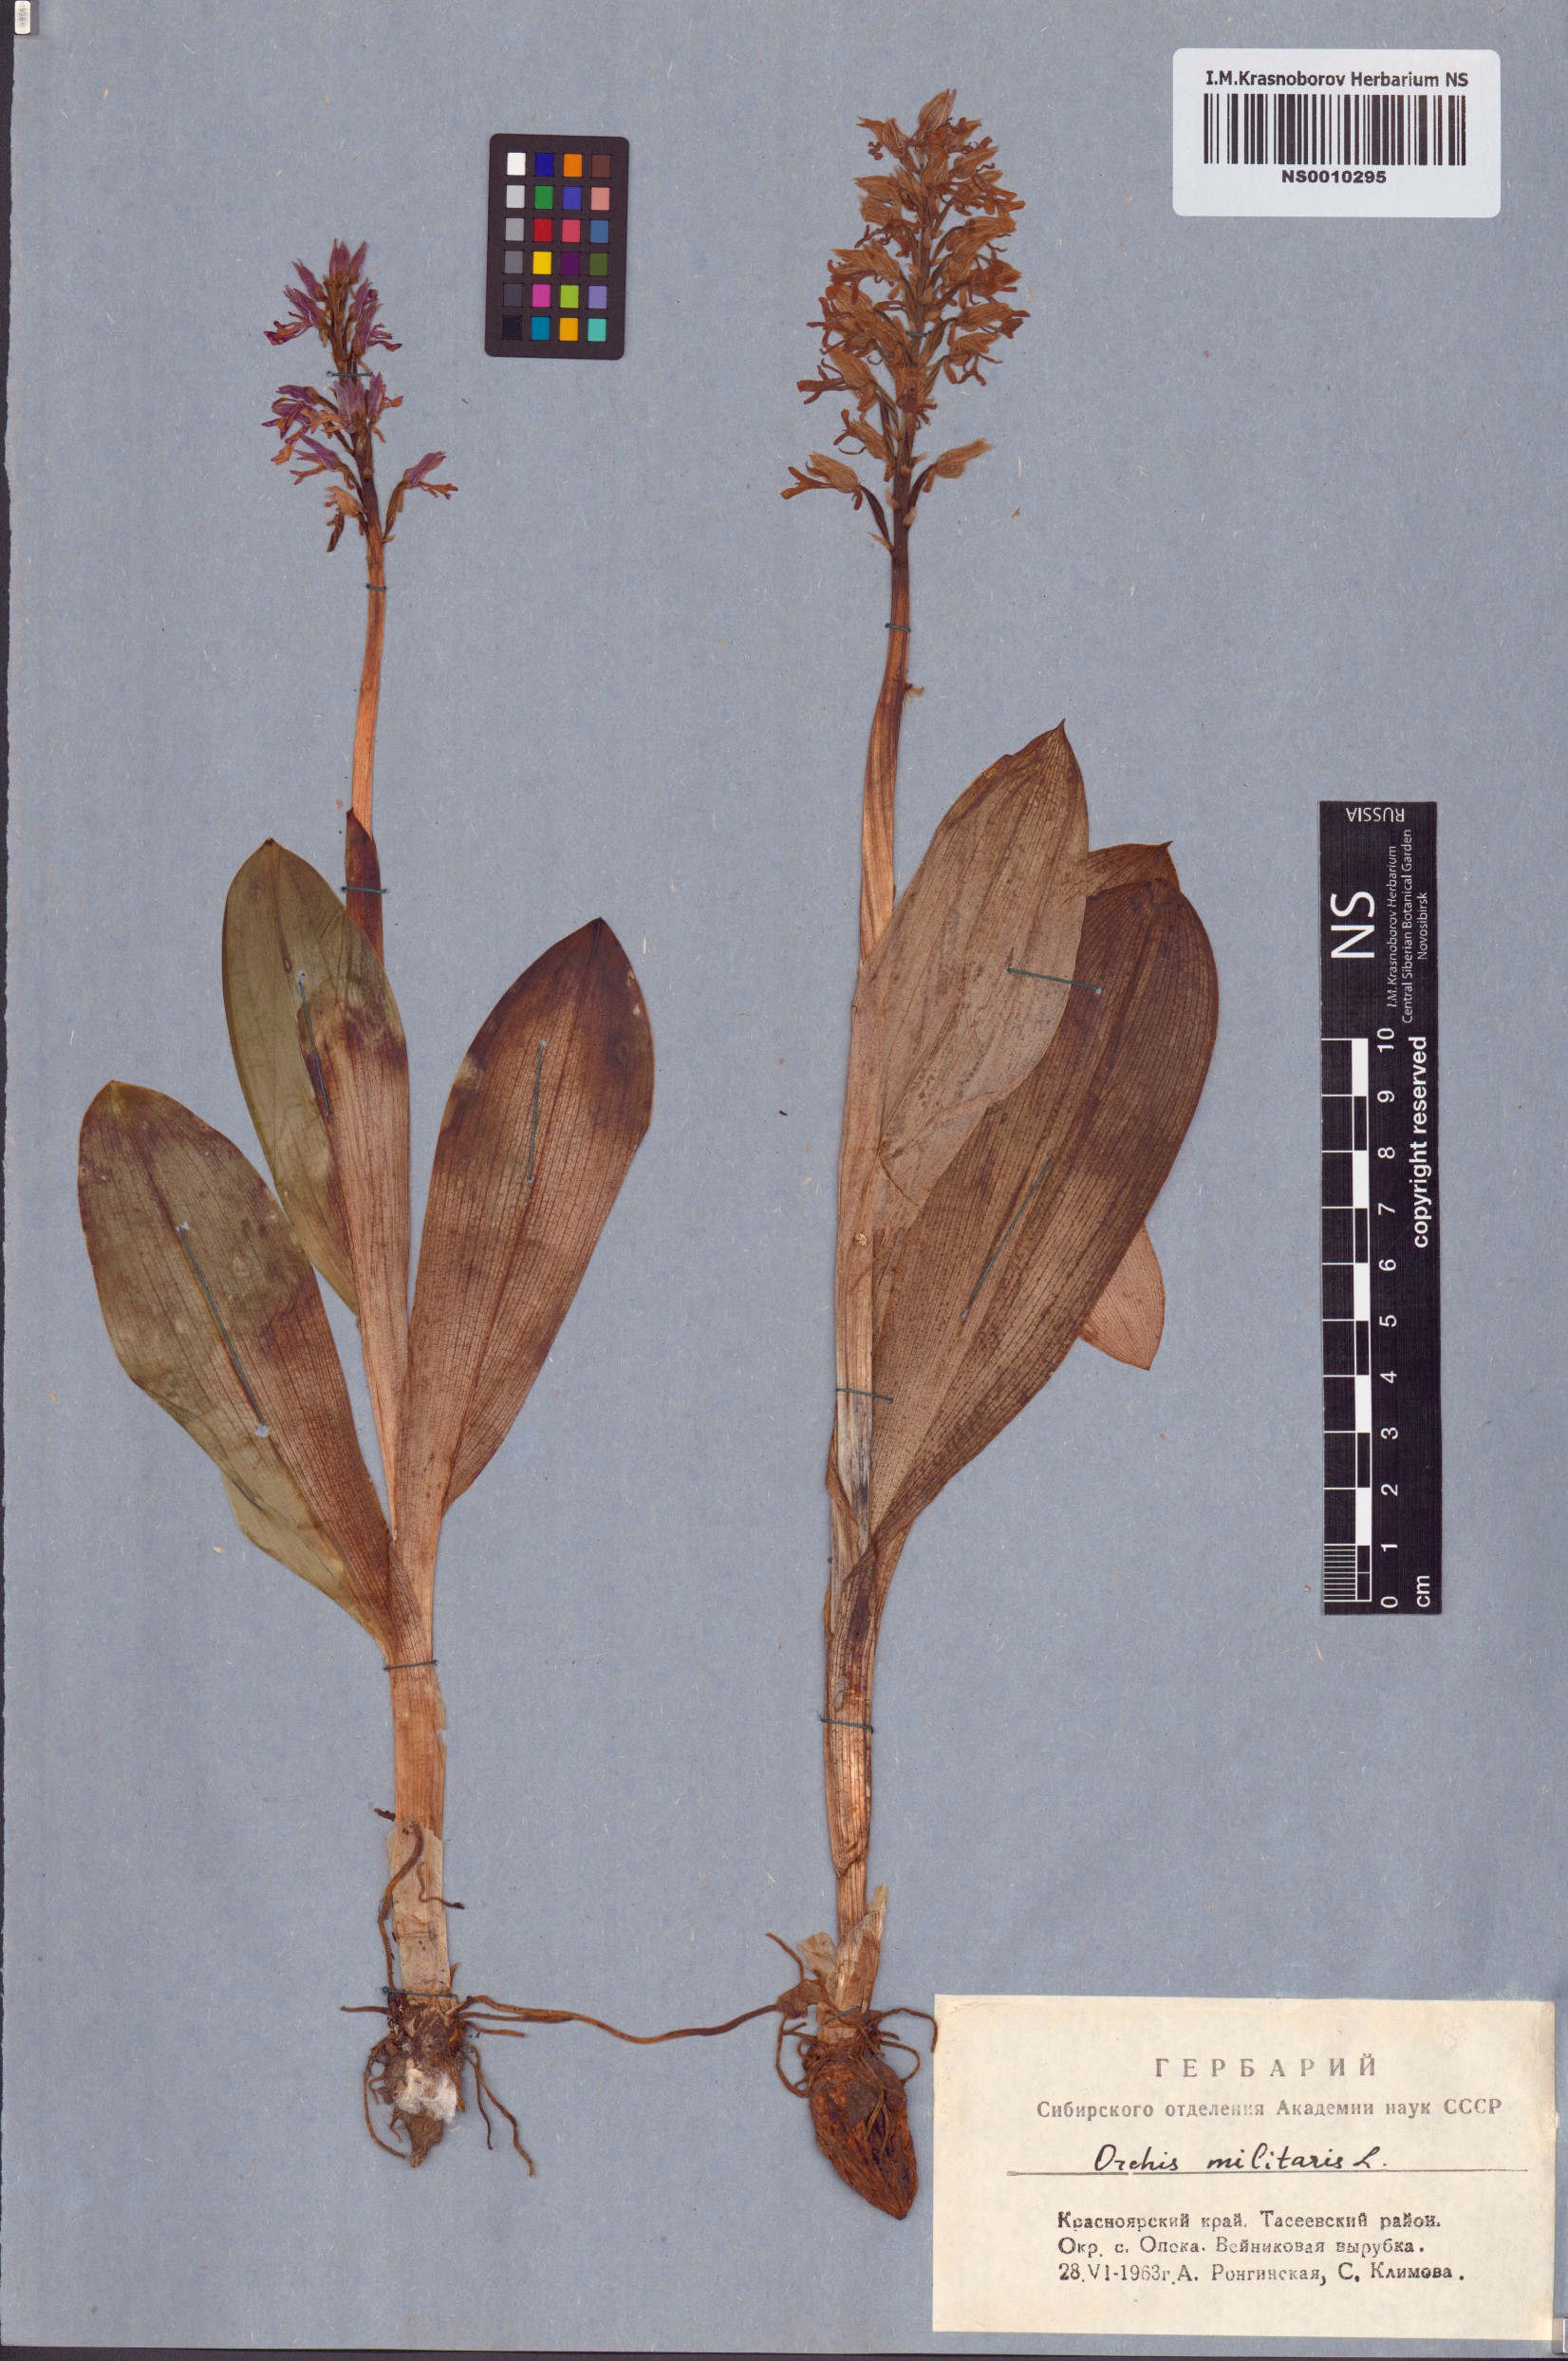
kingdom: Plantae
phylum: Tracheophyta
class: Liliopsida
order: Asparagales
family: Orchidaceae
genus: Orchis
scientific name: Orchis militaris
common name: Military orchid
